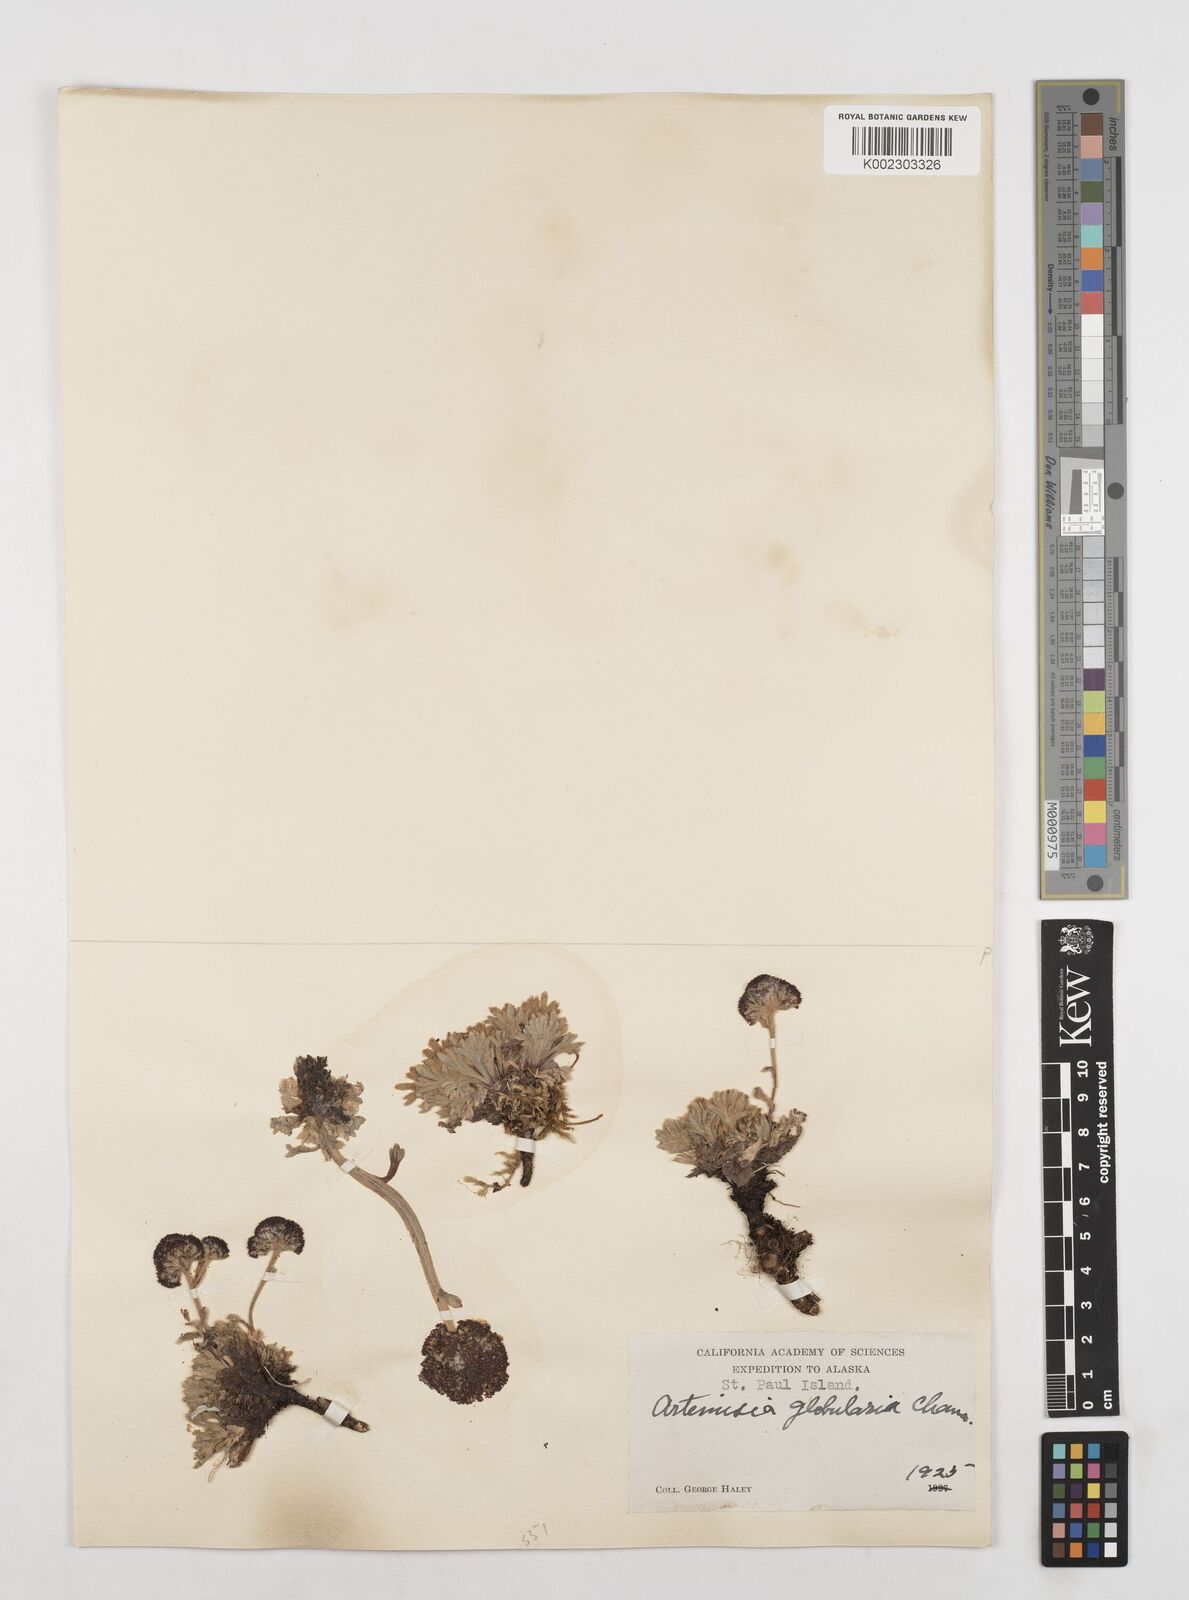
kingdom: Plantae
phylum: Tracheophyta
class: Magnoliopsida
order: Asterales
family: Asteraceae
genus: Artemisia
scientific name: Artemisia globularia
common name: Purple wormwood
